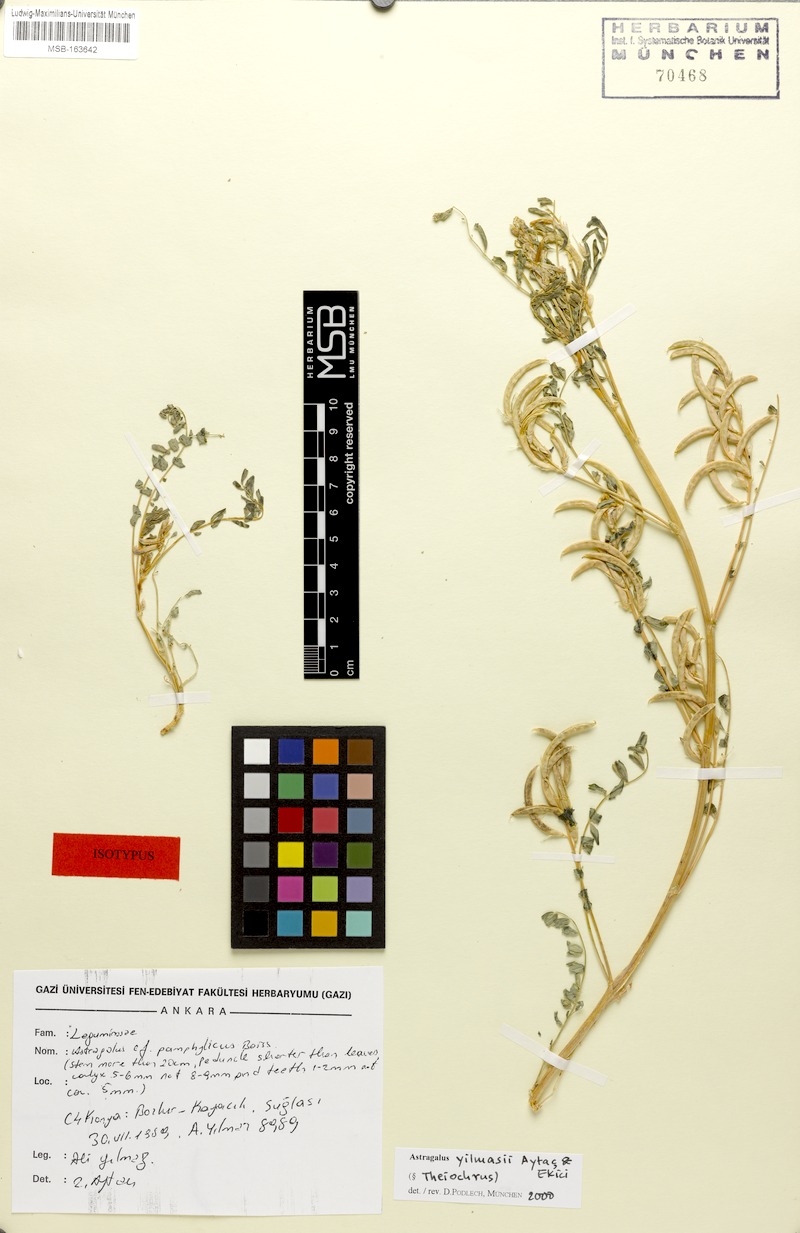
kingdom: Plantae
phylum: Tracheophyta
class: Magnoliopsida
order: Fabales
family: Fabaceae
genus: Astragalus
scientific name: Astragalus yilmazii
